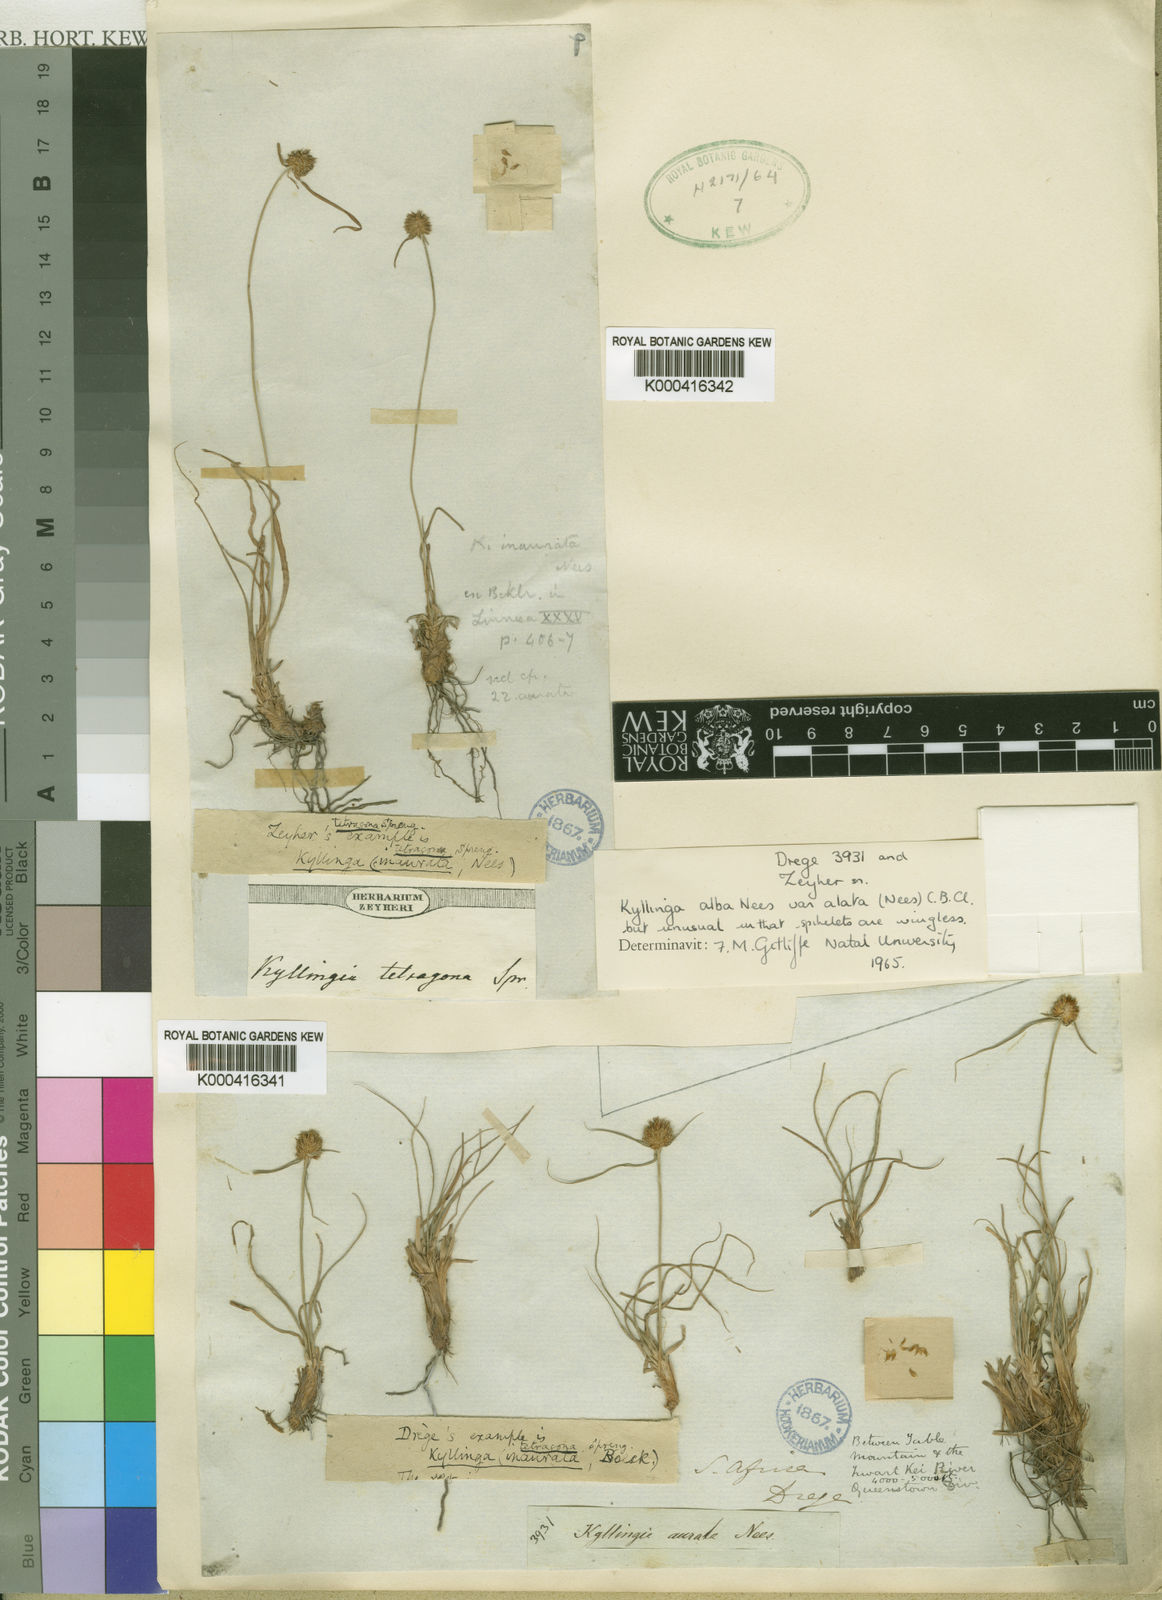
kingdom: Plantae
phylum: Tracheophyta
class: Liliopsida
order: Poales
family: Cyperaceae
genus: Cyperus
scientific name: Cyperus inauratus
